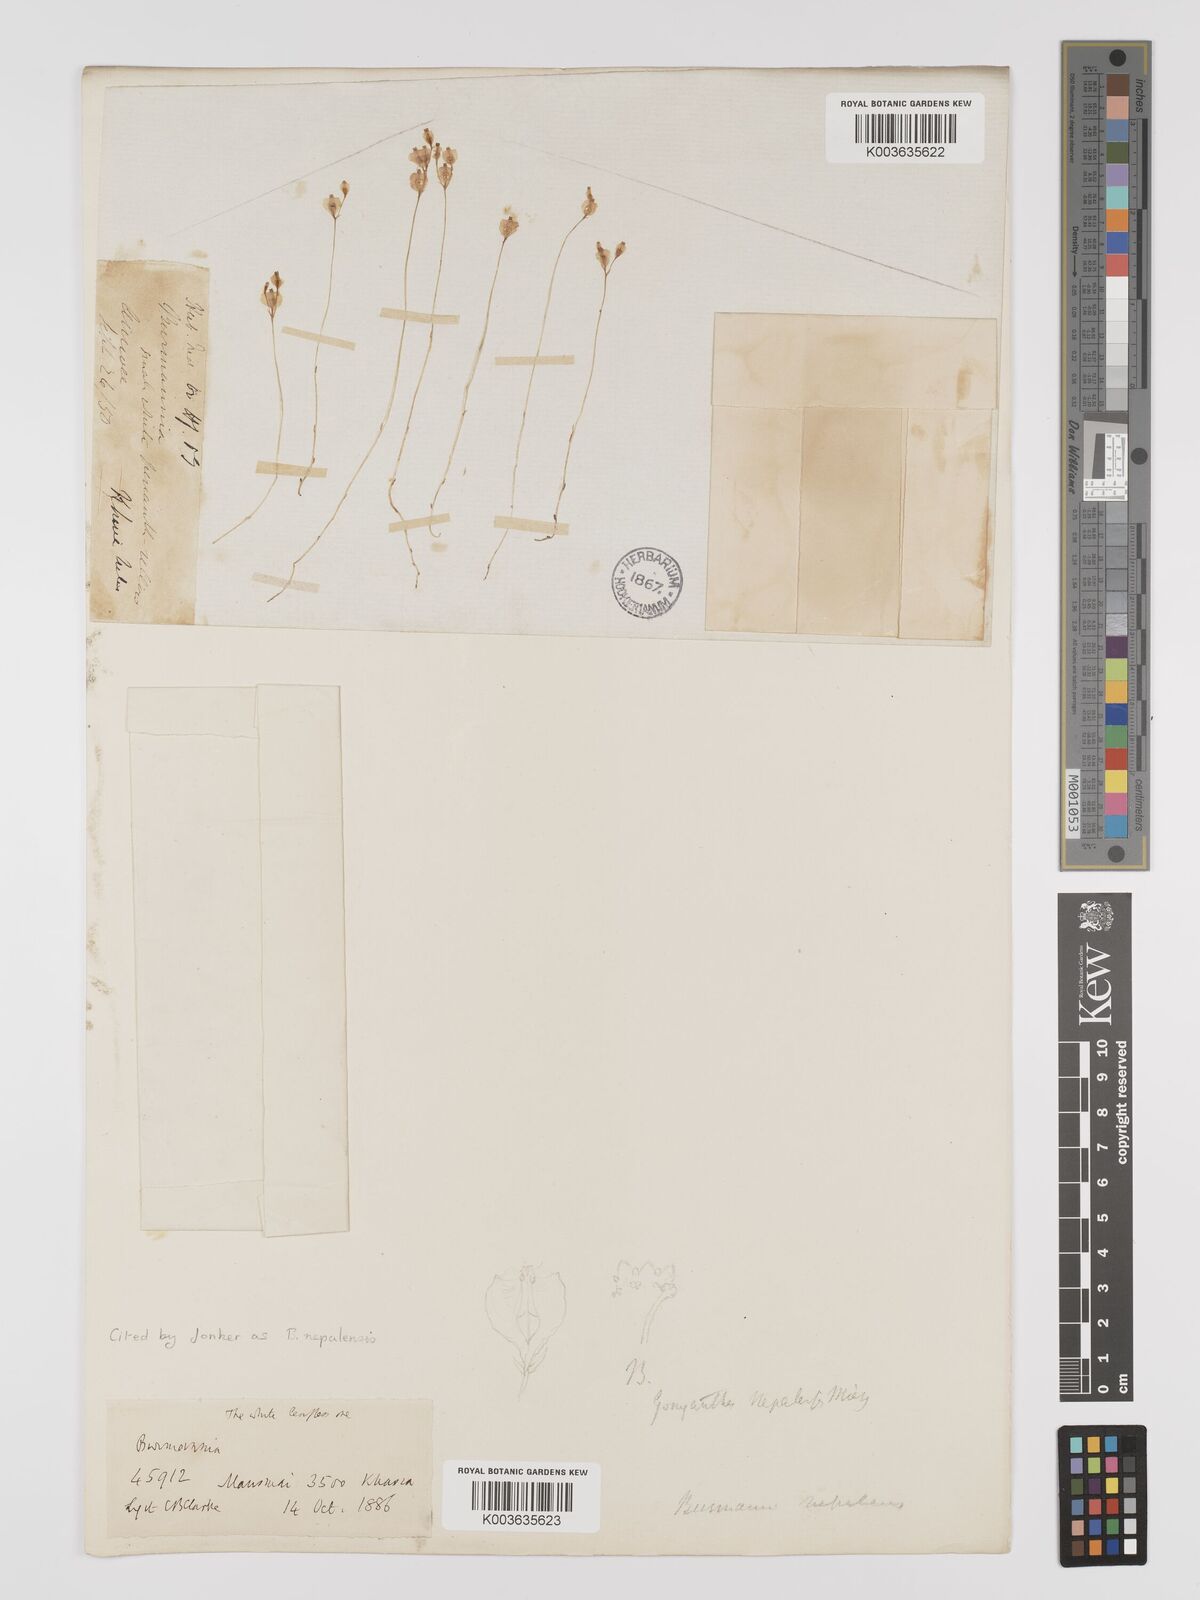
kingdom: Plantae
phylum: Tracheophyta
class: Liliopsida
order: Dioscoreales
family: Burmanniaceae
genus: Burmannia
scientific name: Burmannia nepalensis
